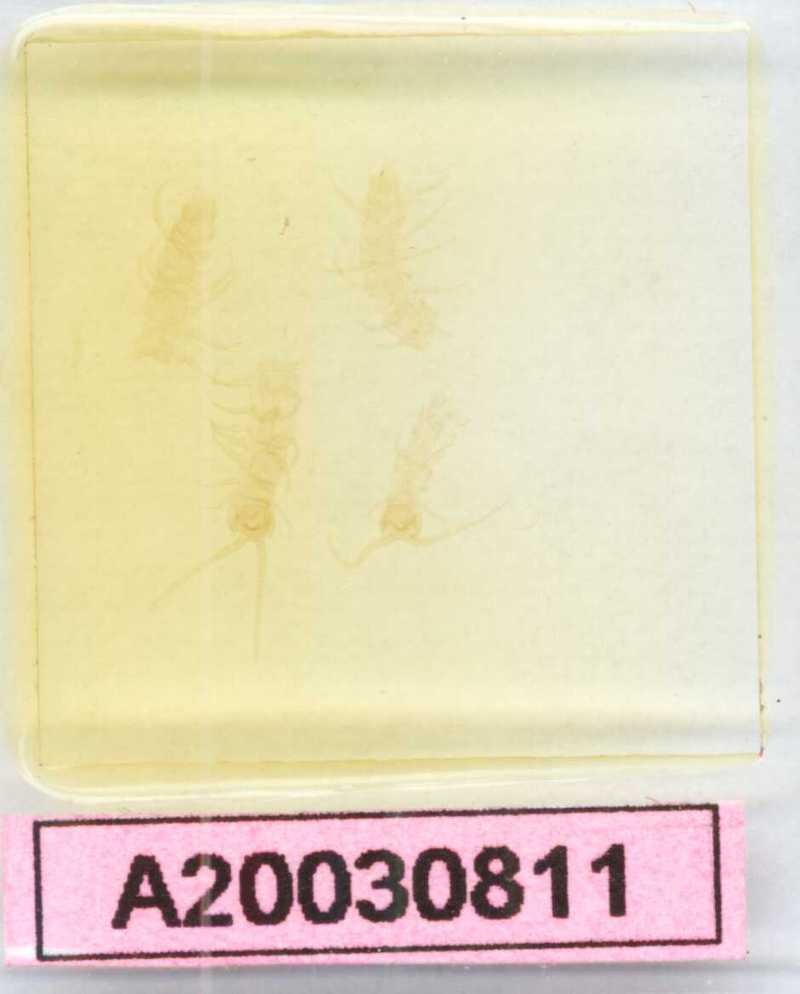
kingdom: Animalia
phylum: Arthropoda
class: Chilopoda
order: Lithobiomorpha
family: Lithobiidae
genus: Lithobius
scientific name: Lithobius
